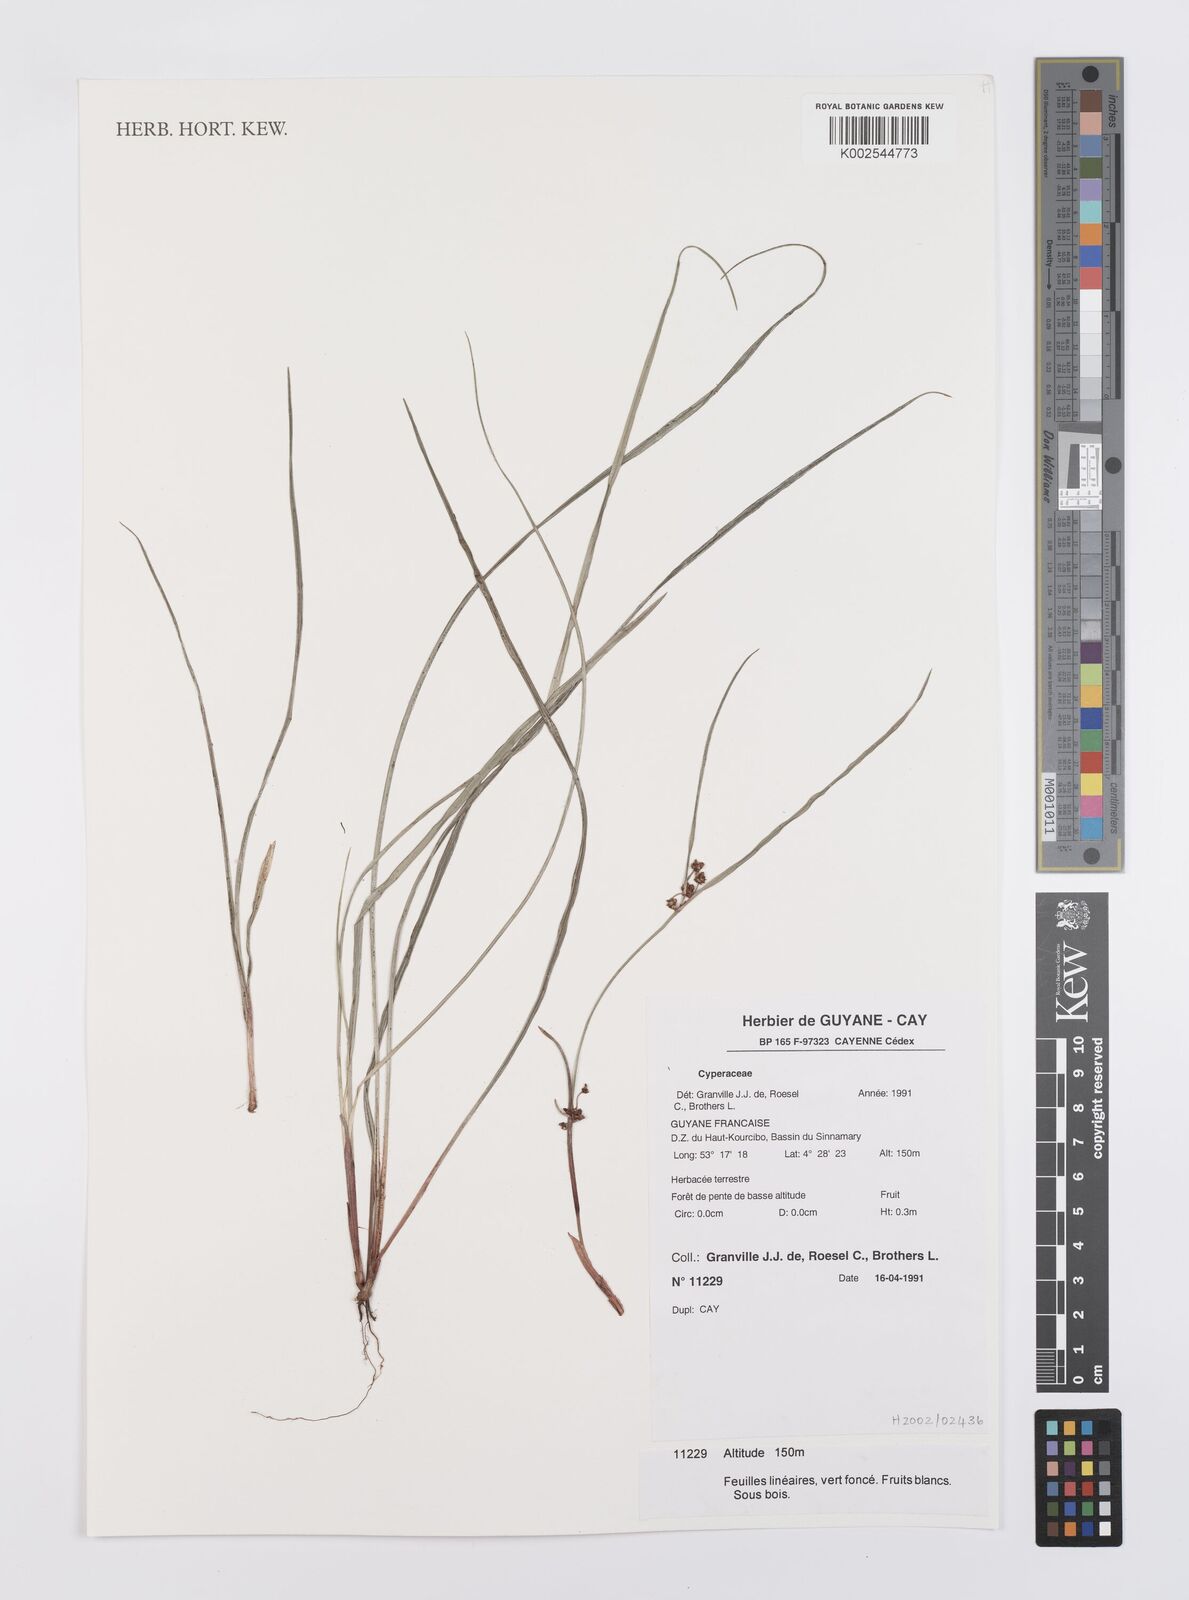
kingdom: Plantae
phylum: Tracheophyta
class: Liliopsida
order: Poales
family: Cyperaceae
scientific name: Cyperaceae
